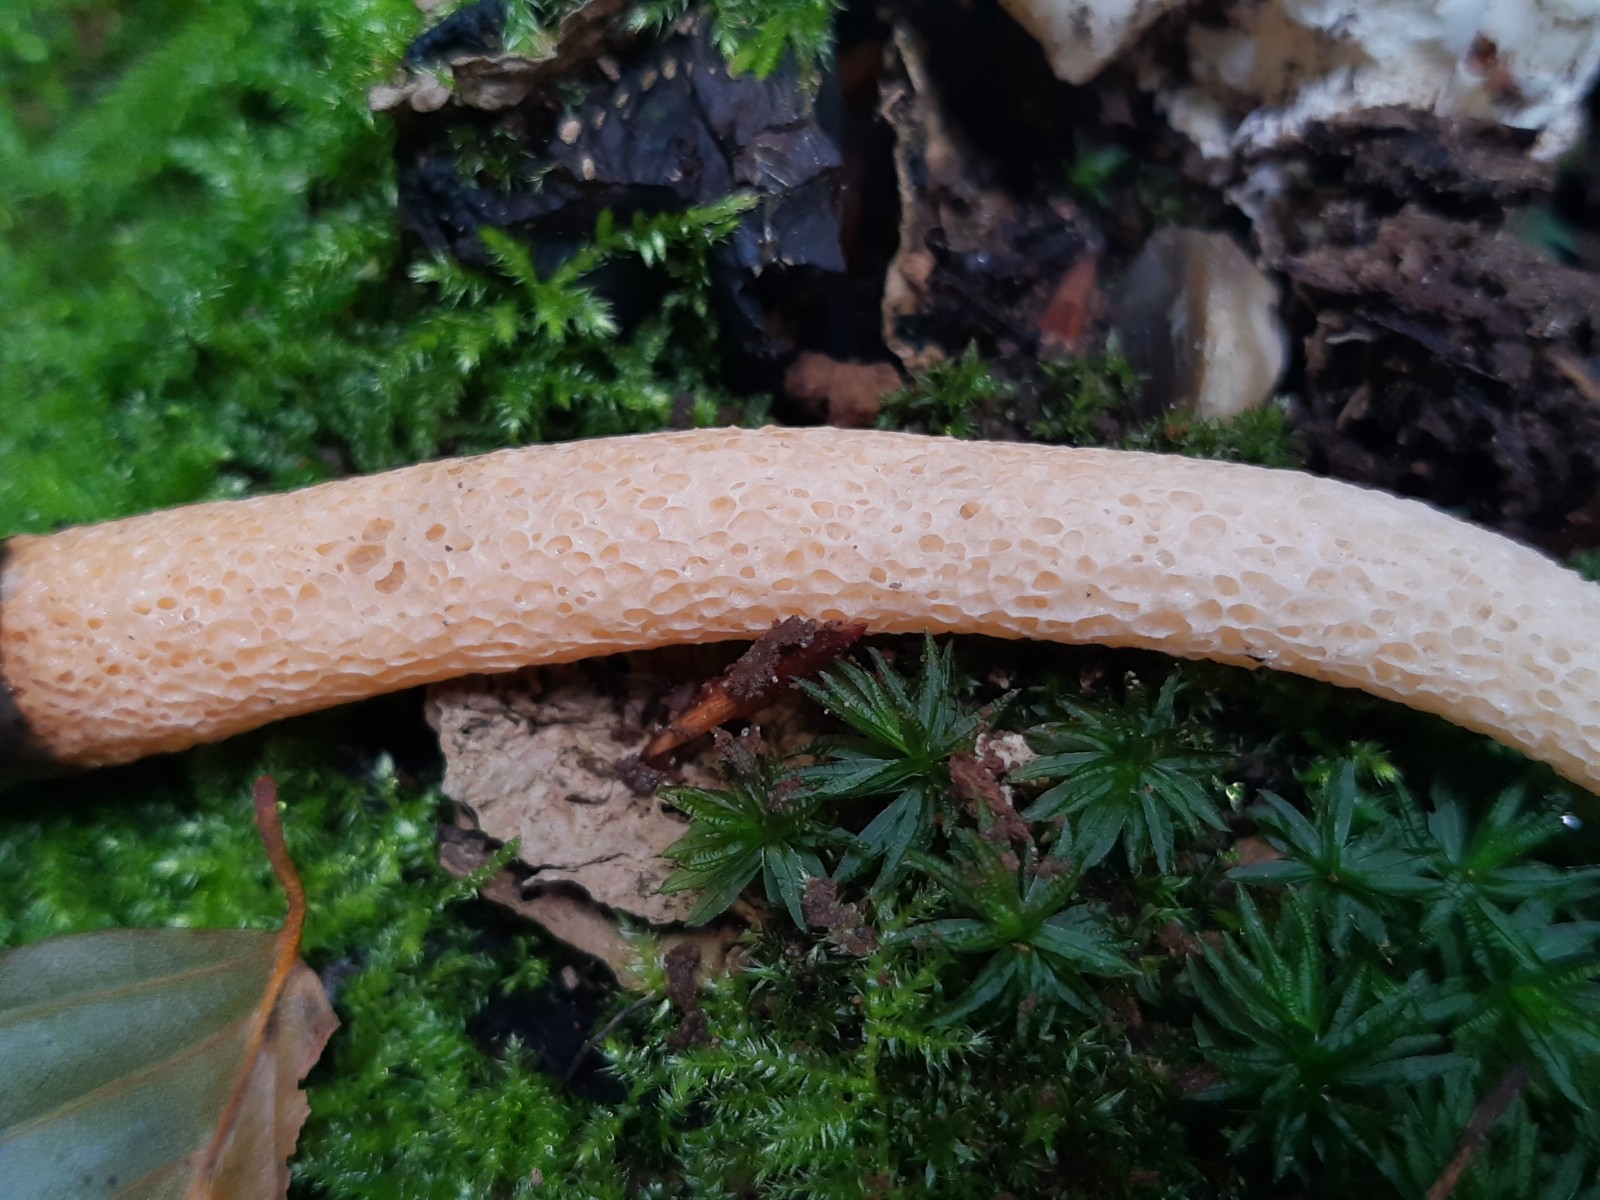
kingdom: Fungi
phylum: Basidiomycota
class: Agaricomycetes
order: Phallales
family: Phallaceae
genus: Mutinus
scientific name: Mutinus caninus
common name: hunde-stinksvamp
